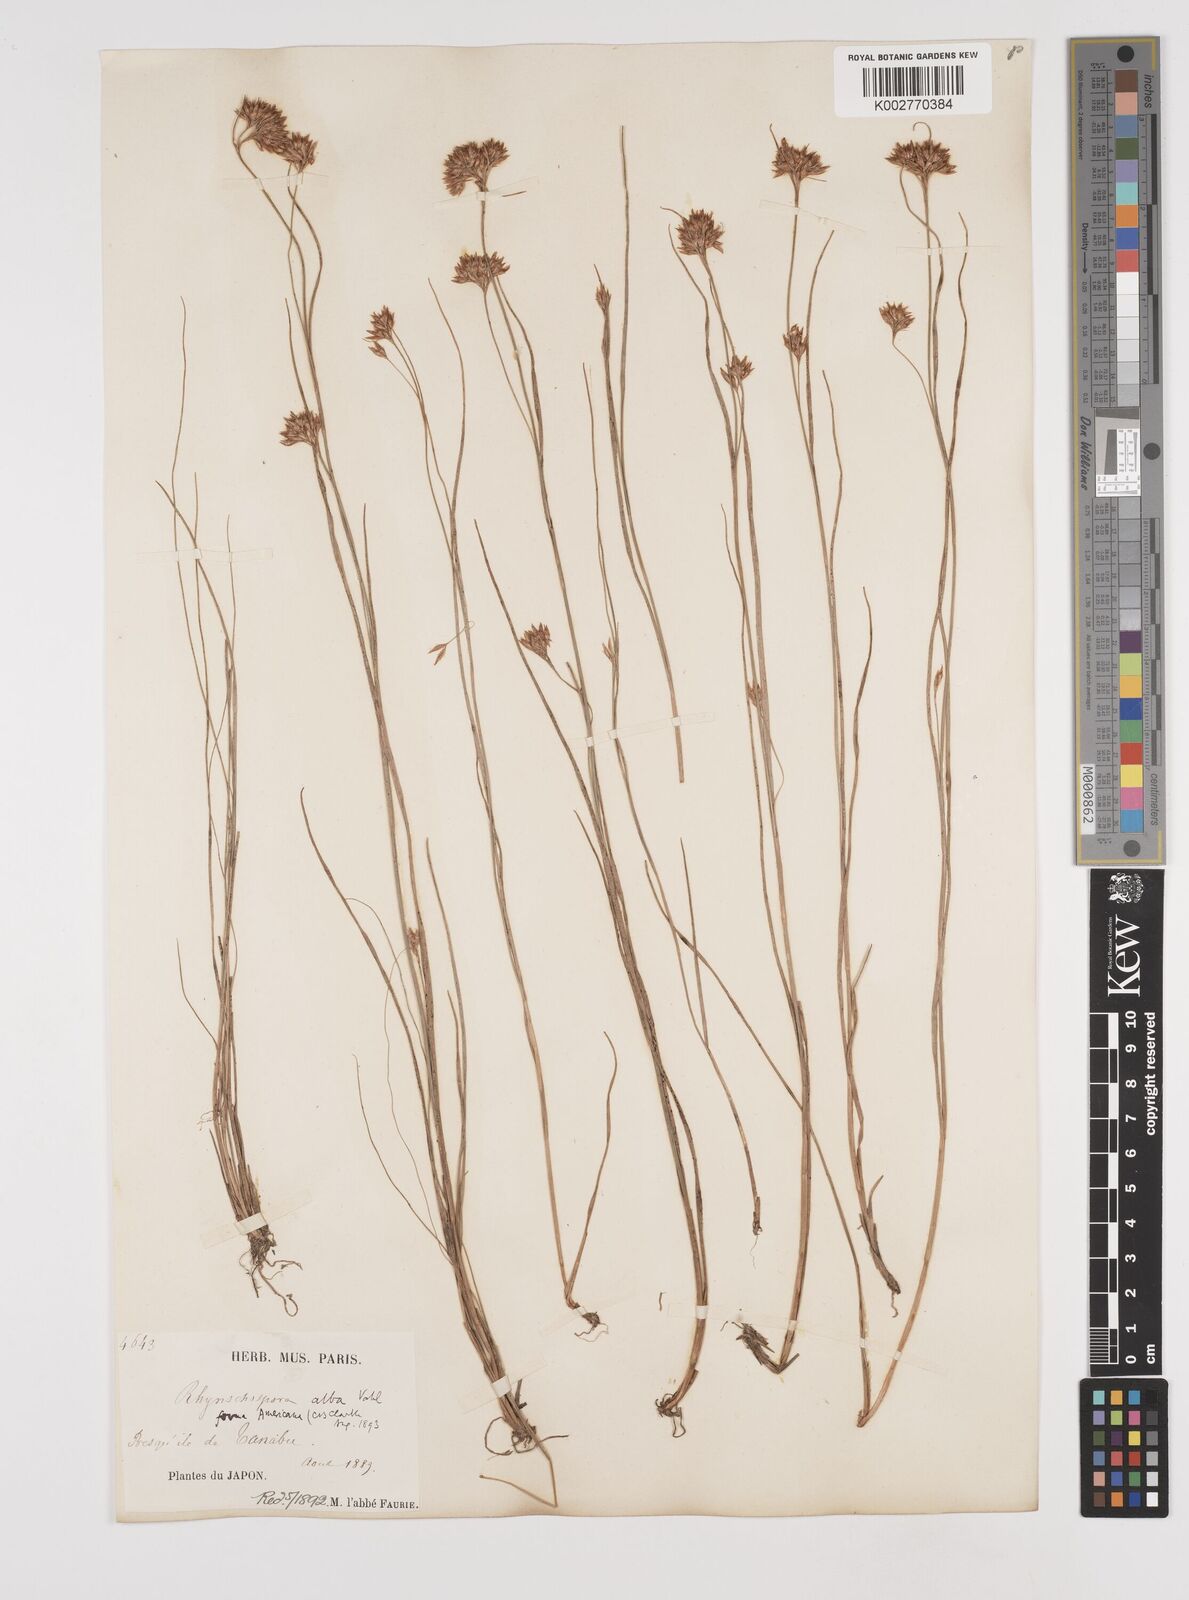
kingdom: Plantae
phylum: Tracheophyta
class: Liliopsida
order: Poales
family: Cyperaceae
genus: Rhynchospora
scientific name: Rhynchospora alba
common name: White beak-sedge
